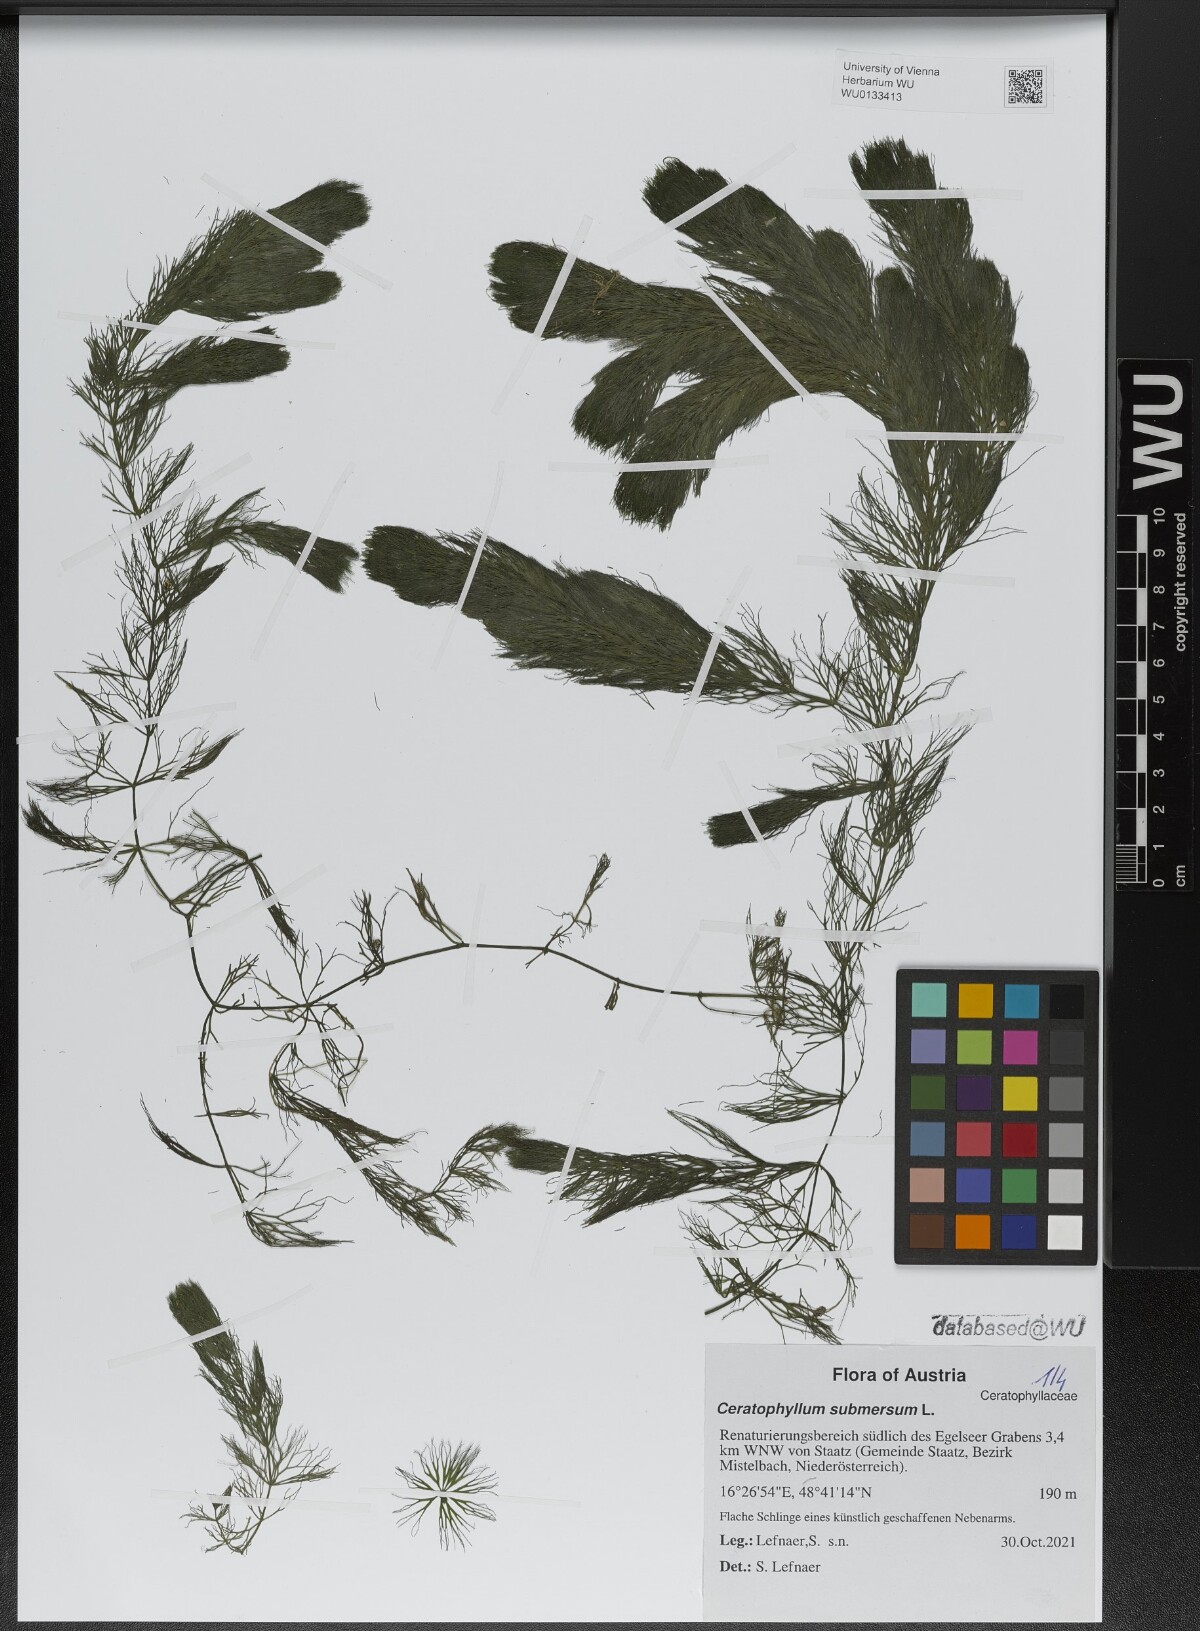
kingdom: Plantae
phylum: Tracheophyta
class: Magnoliopsida
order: Ceratophyllales
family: Ceratophyllaceae
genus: Ceratophyllum
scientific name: Ceratophyllum submersum
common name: Soft hornwort
